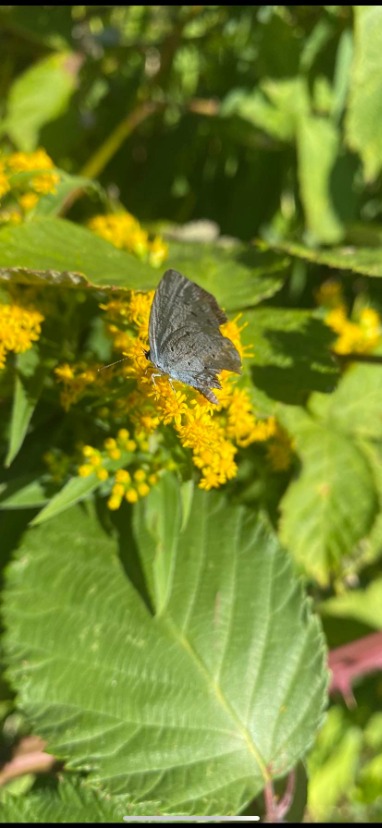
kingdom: Animalia
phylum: Arthropoda
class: Insecta
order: Lepidoptera
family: Lycaenidae
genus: Celastrina
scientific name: Celastrina argiolus
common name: Skovblåfugl
